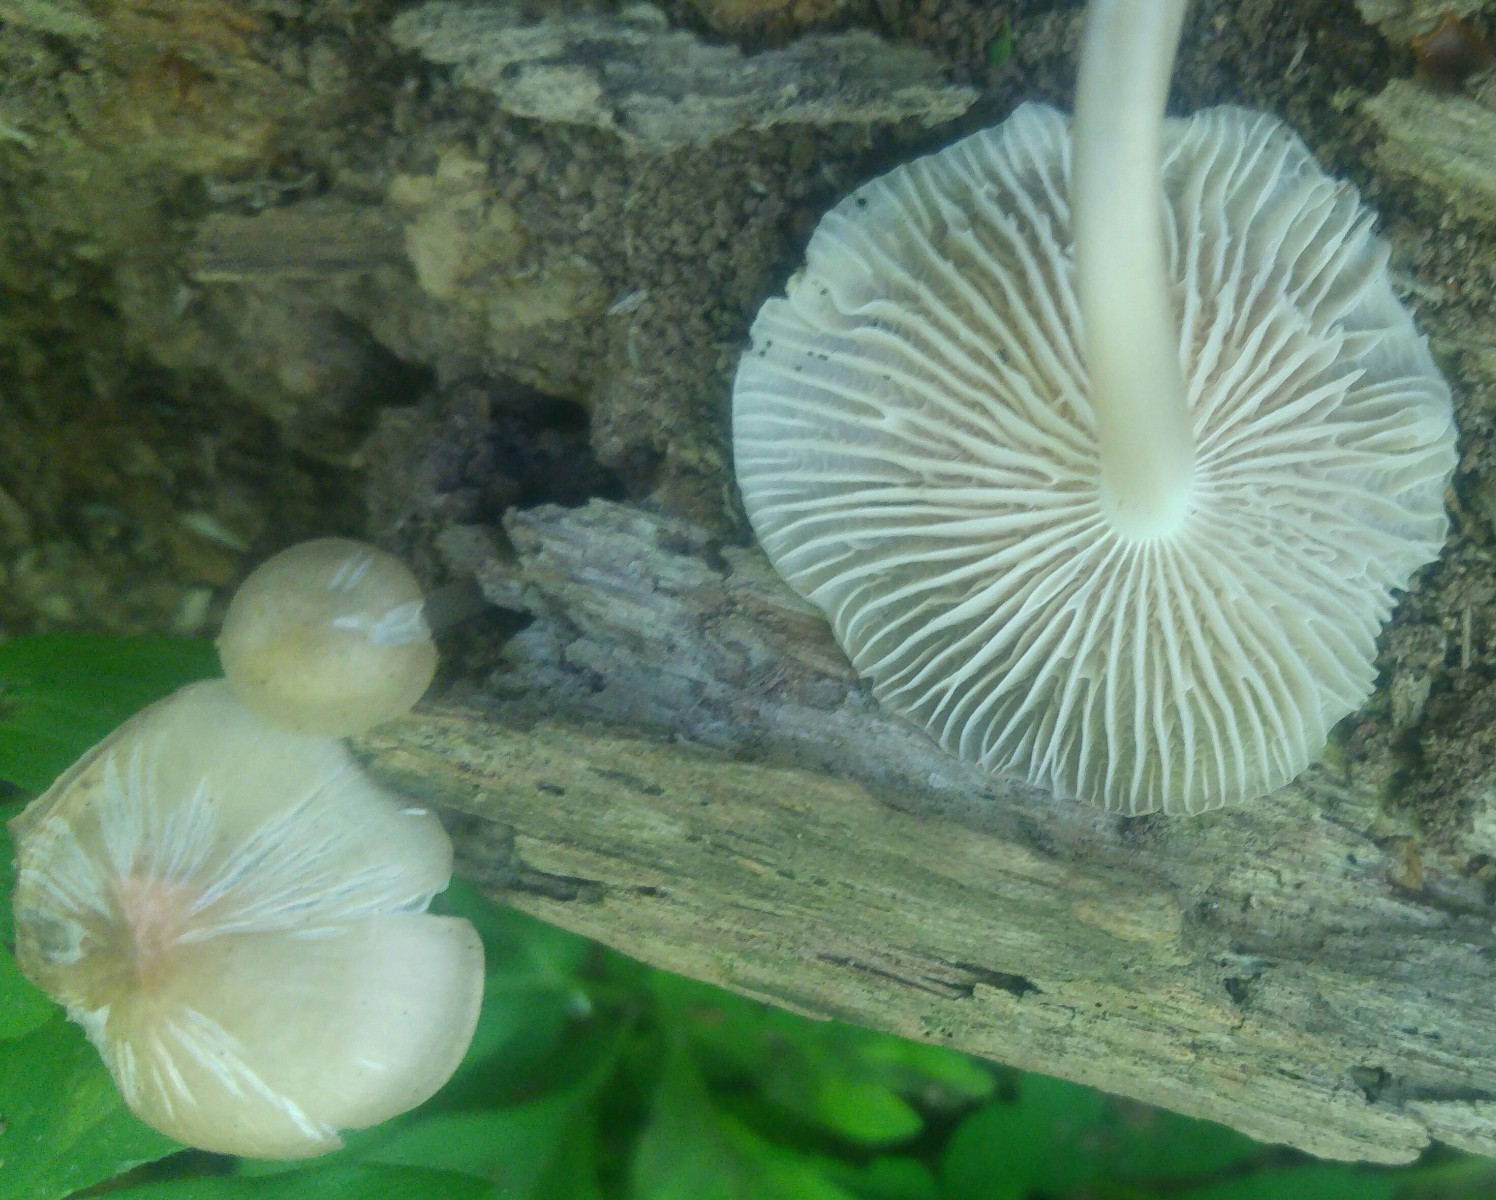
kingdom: Fungi
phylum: Basidiomycota
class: Agaricomycetes
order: Agaricales
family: Mycenaceae
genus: Mycena
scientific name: Mycena galericulata
